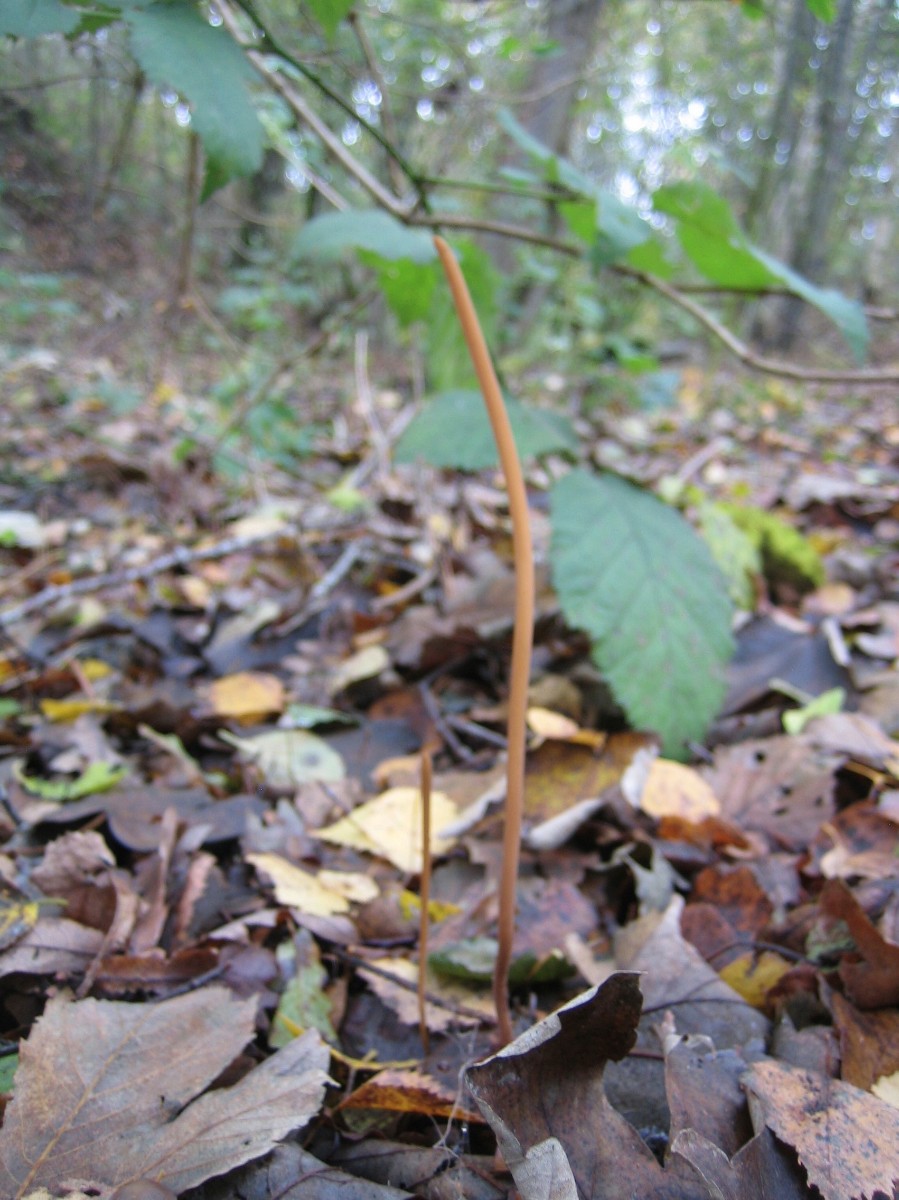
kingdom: Fungi
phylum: Basidiomycota
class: Agaricomycetes
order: Agaricales
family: Typhulaceae
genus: Typhula
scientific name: Typhula fistulosa
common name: pibet rørkølle
